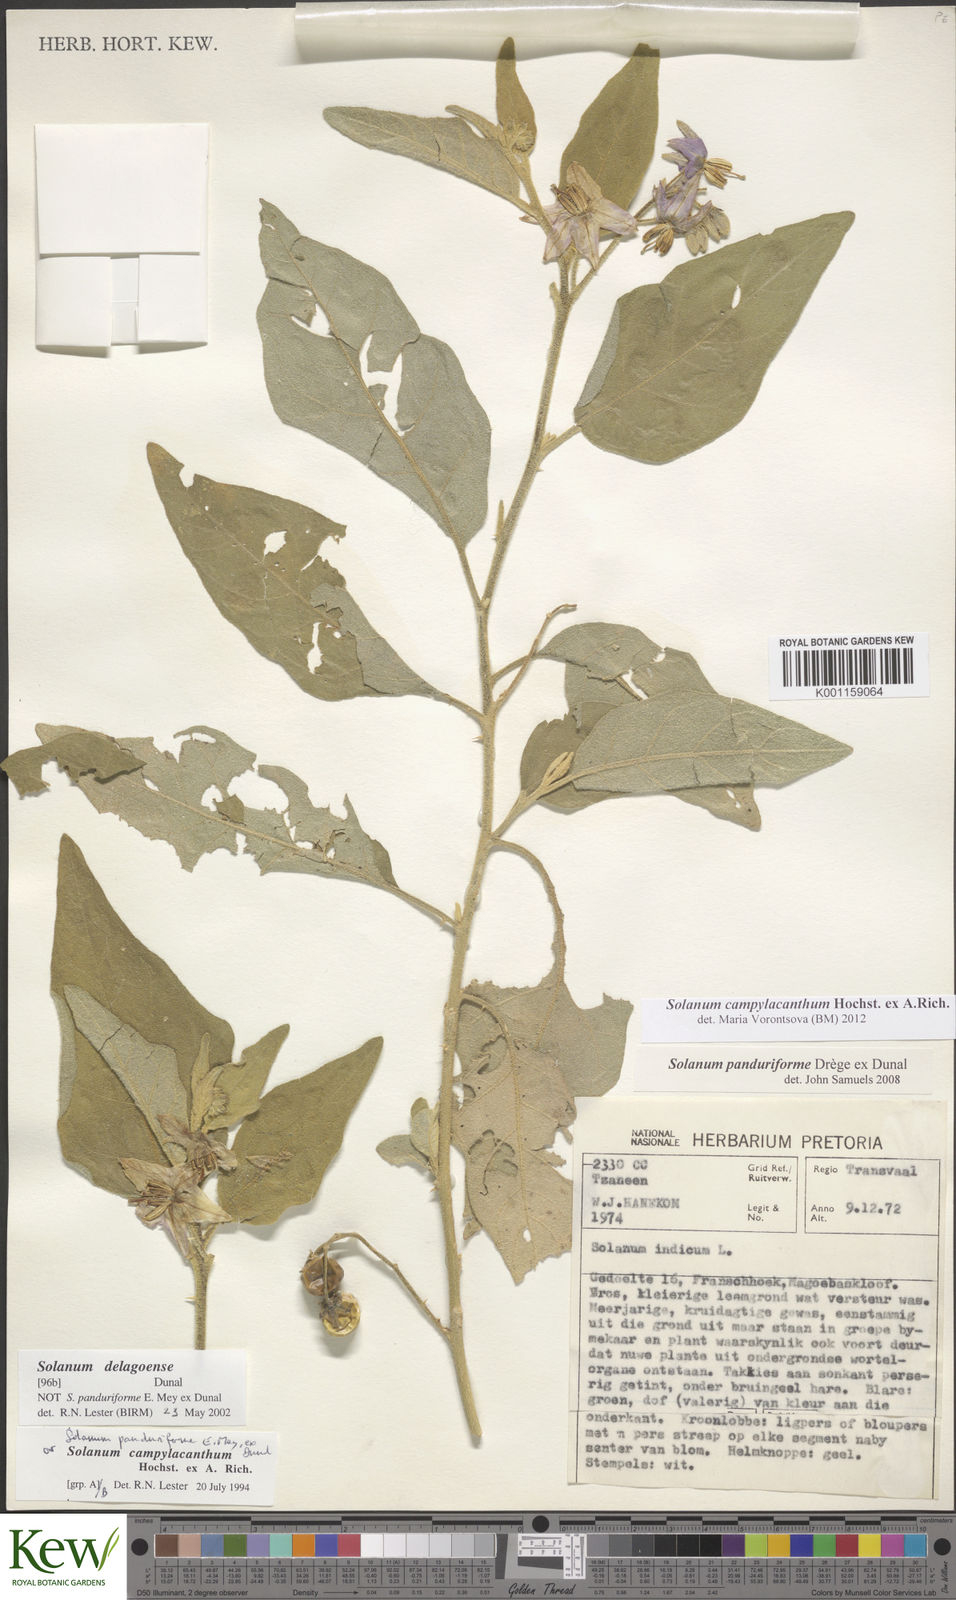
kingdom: Plantae
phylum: Tracheophyta
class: Magnoliopsida
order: Solanales
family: Solanaceae
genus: Solanum
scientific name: Solanum campylacanthum
